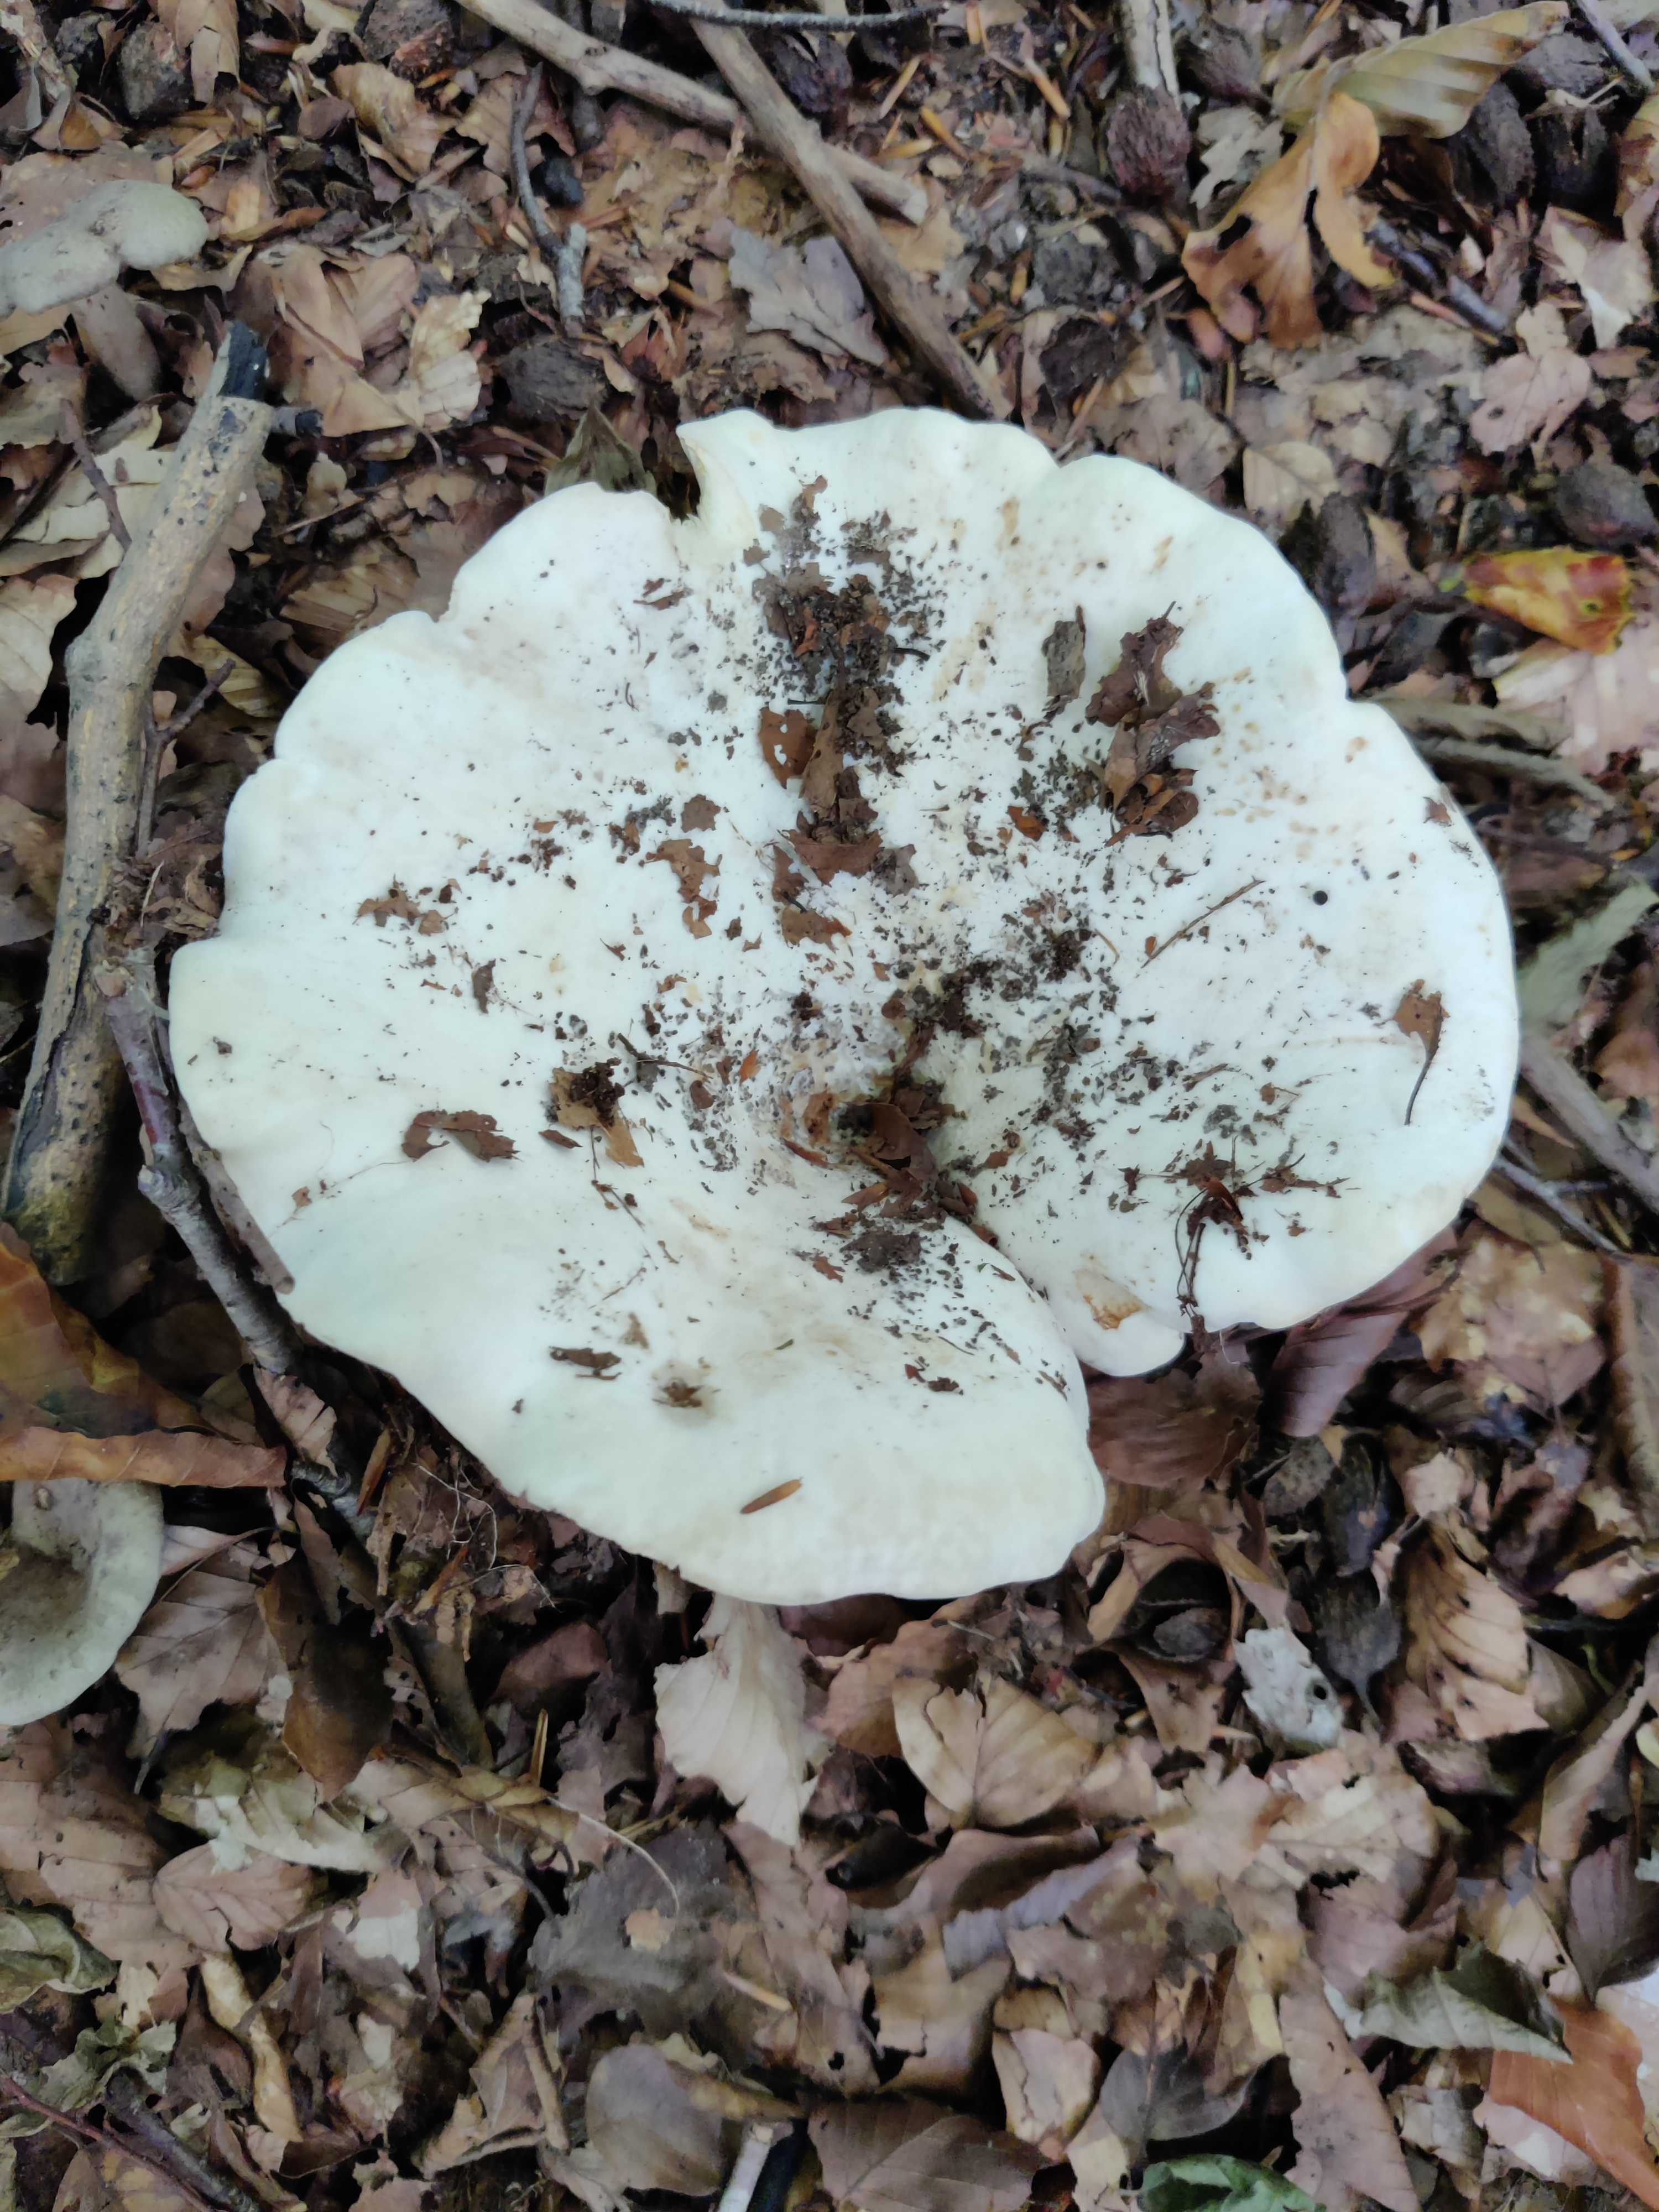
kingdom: Fungi
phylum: Basidiomycota
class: Agaricomycetes
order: Russulales
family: Russulaceae
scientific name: Russulaceae
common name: skørhatfamilien
